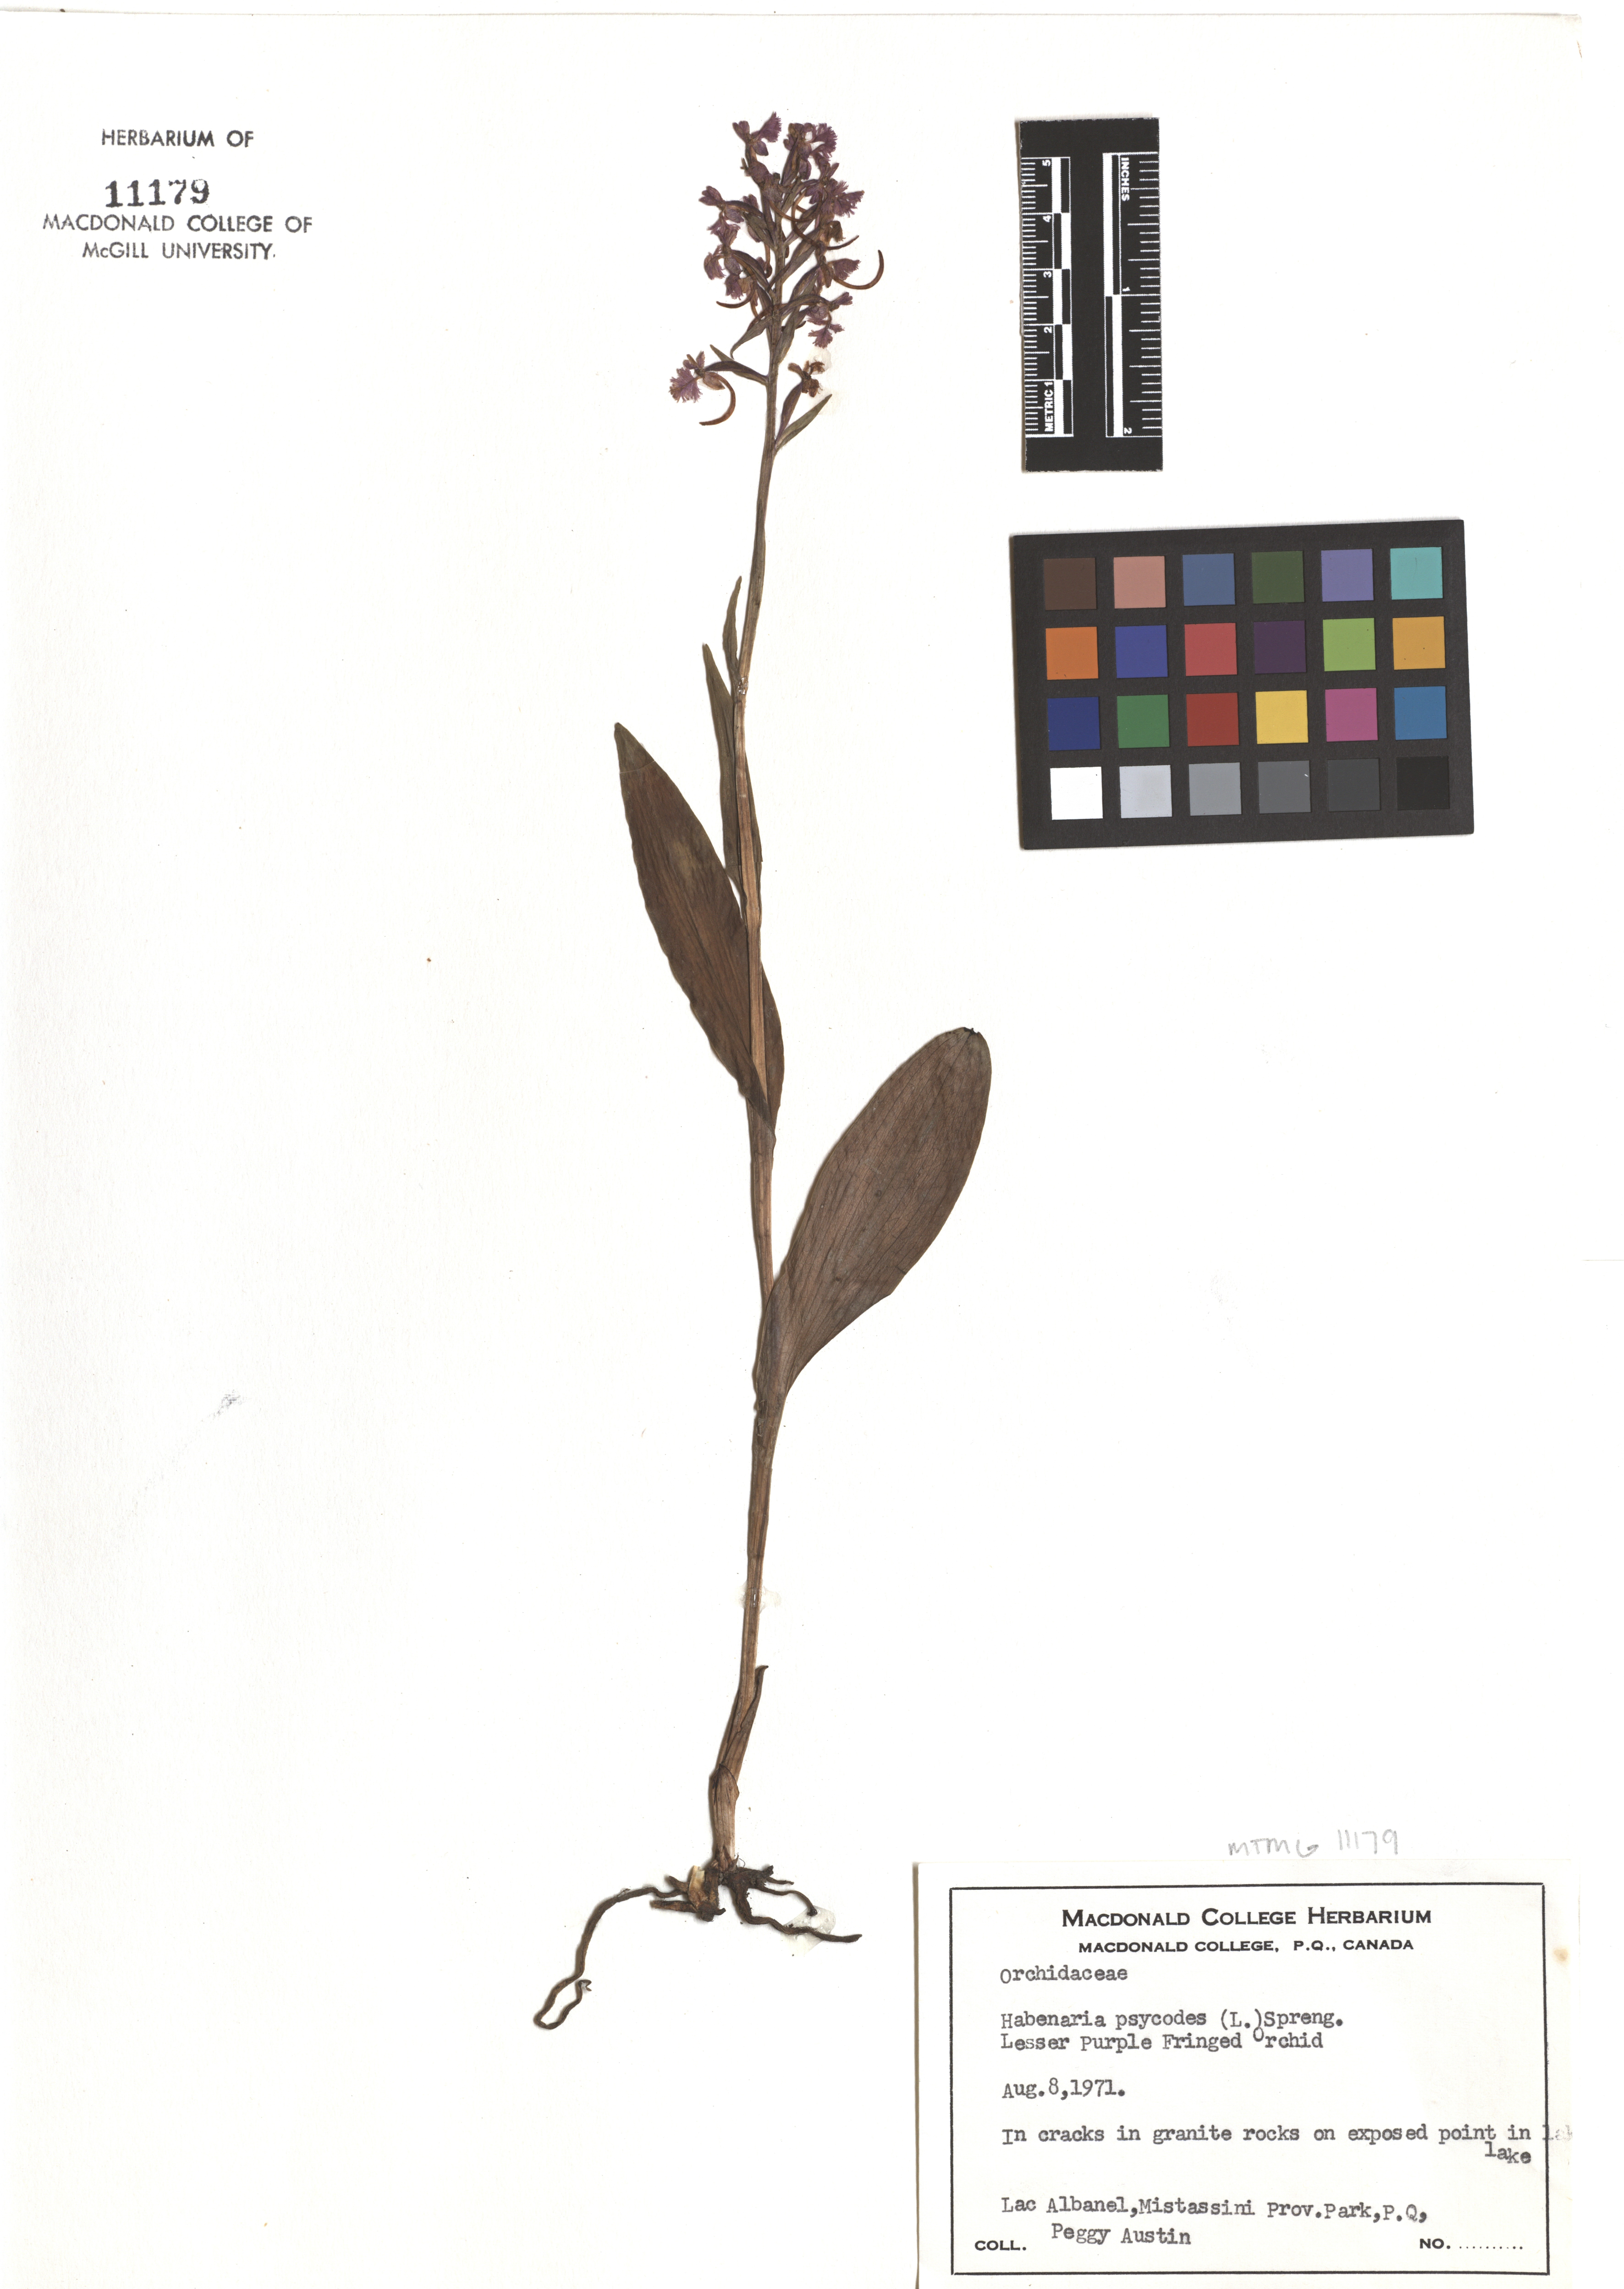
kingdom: Plantae
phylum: Tracheophyta
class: Liliopsida
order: Asparagales
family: Orchidaceae
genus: Platanthera
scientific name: Platanthera psycodes
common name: Lesser purple fringed orchid
